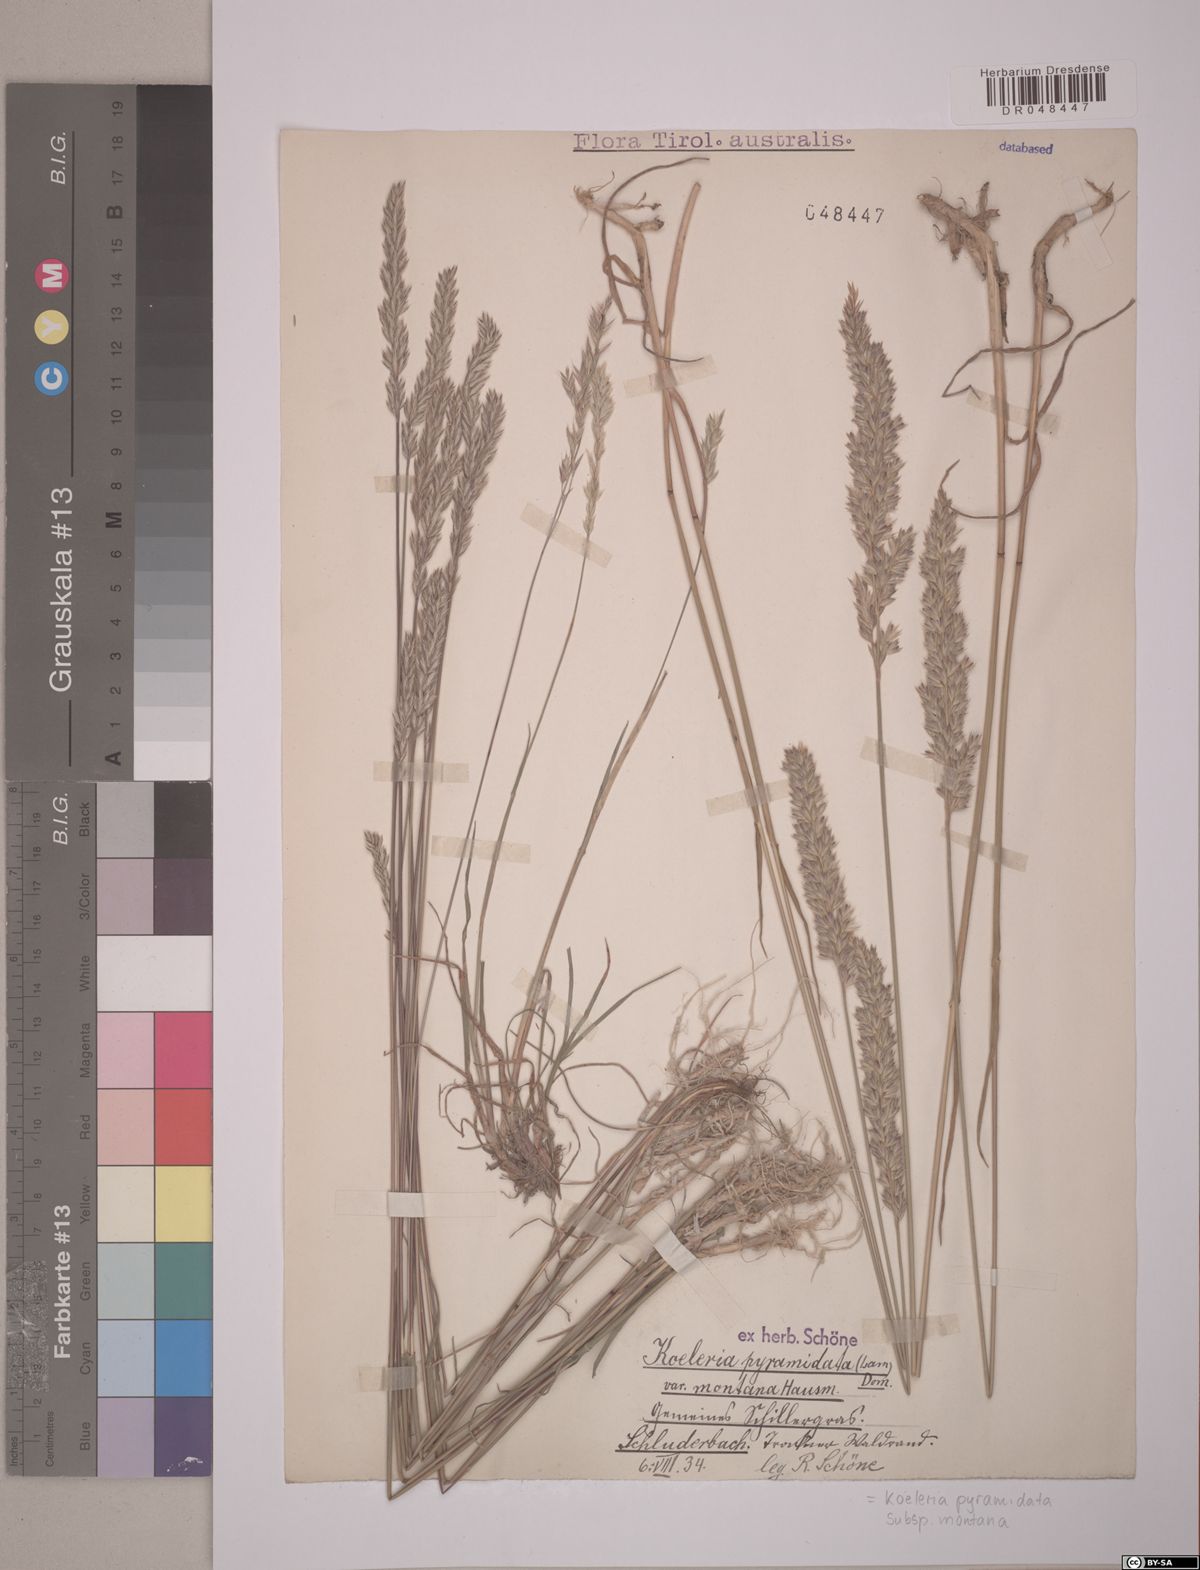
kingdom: Plantae
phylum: Tracheophyta
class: Liliopsida
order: Poales
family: Poaceae
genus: Koeleria
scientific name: Koeleria pyramidata
